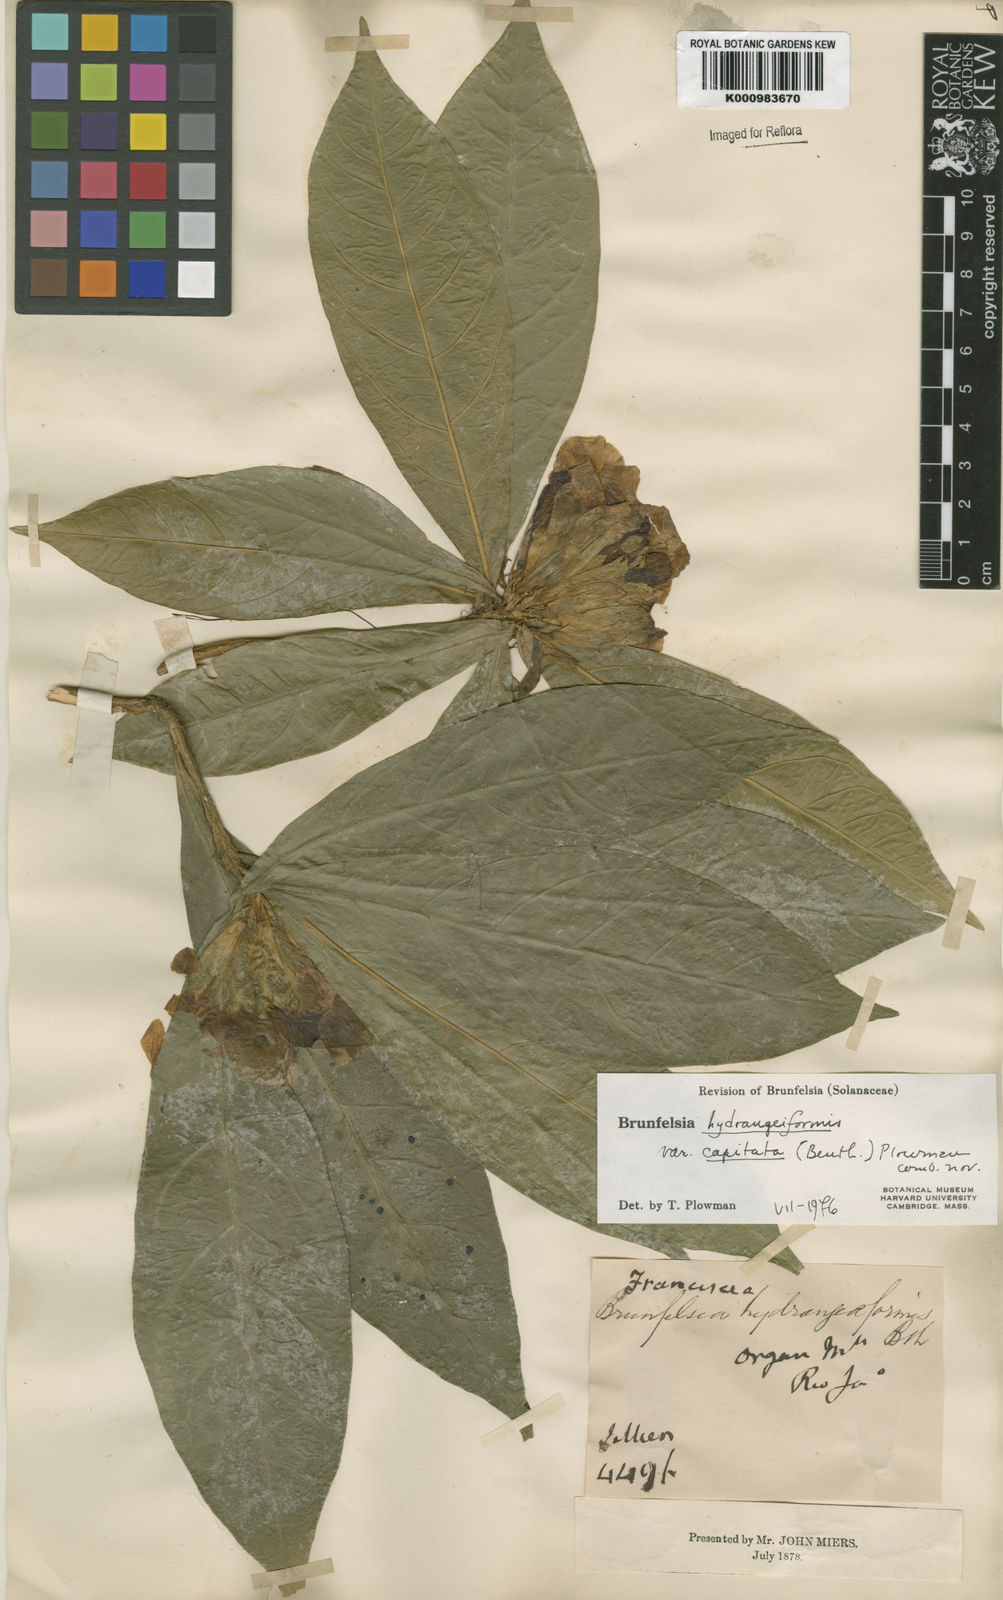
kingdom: Plantae
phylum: Tracheophyta
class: Magnoliopsida
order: Solanales
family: Solanaceae
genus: Solanum
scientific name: Solanum
